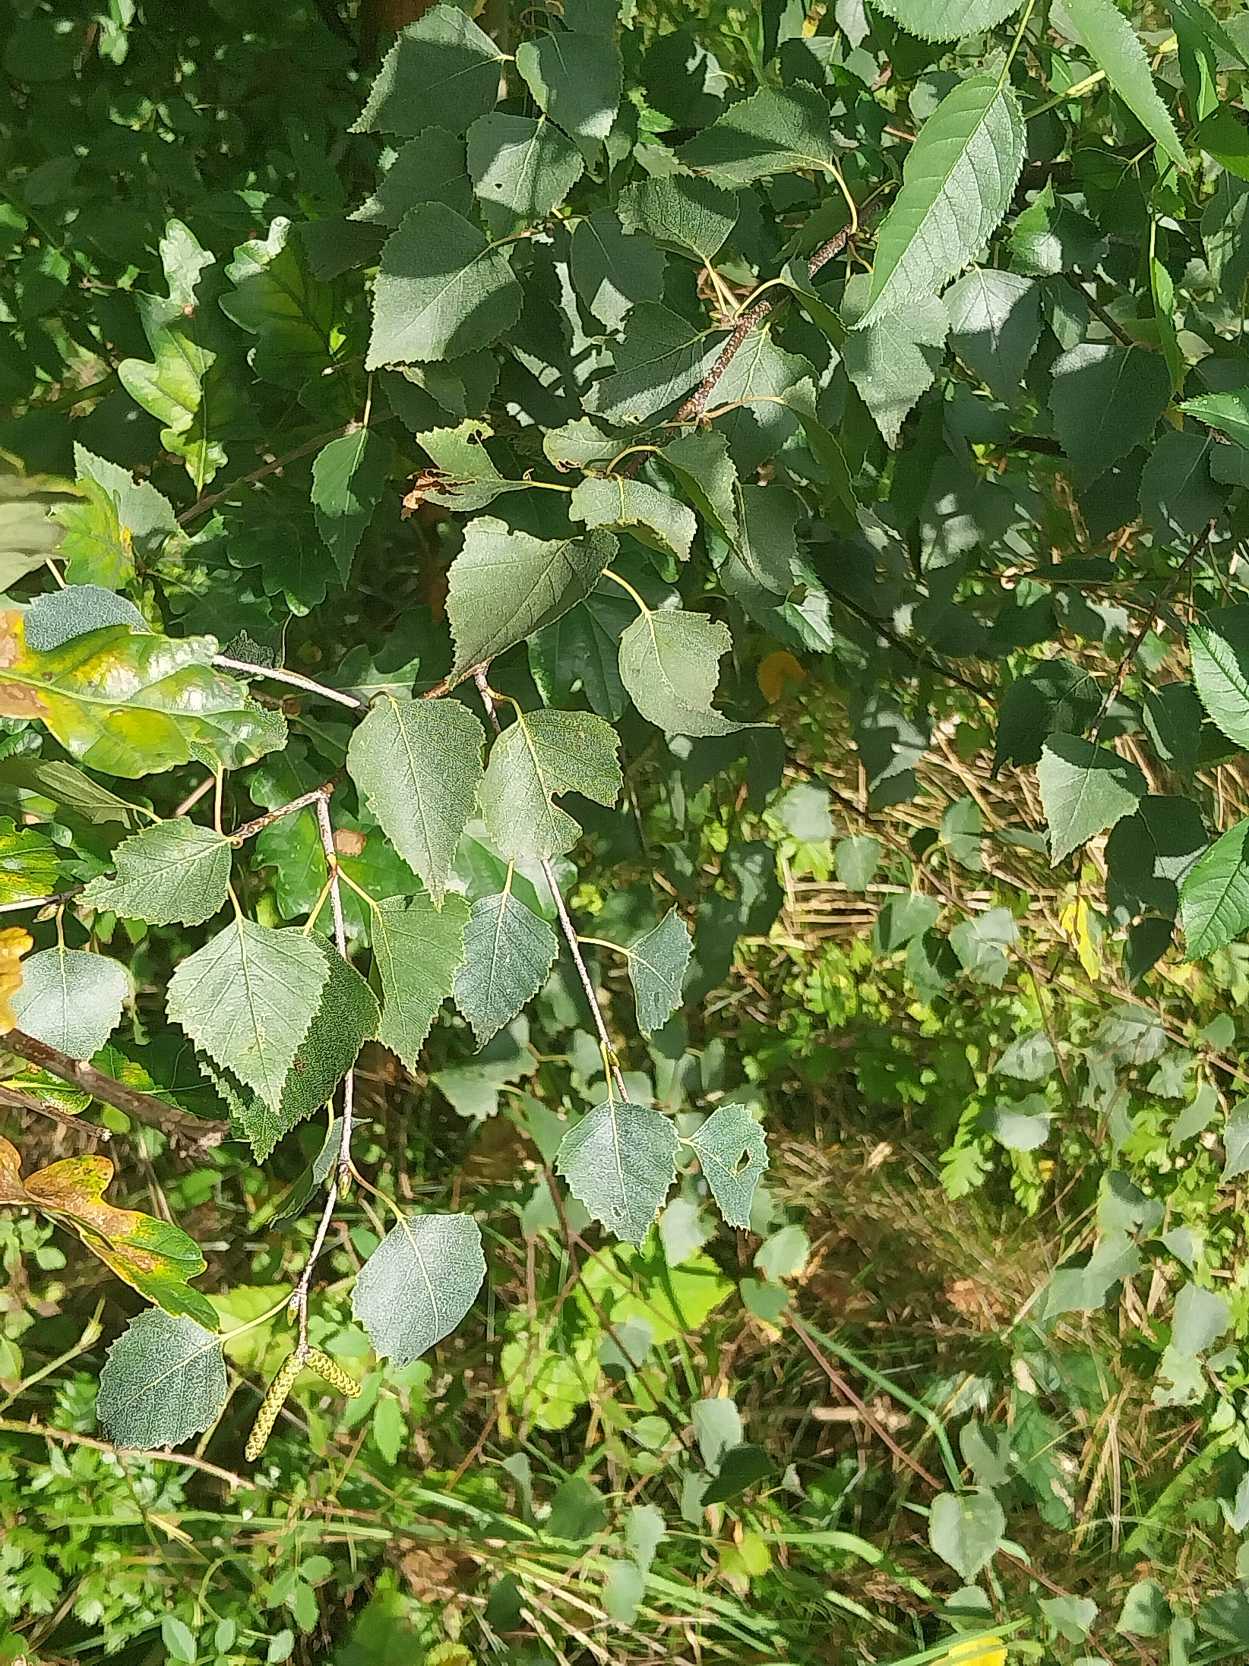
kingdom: Plantae
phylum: Tracheophyta
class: Magnoliopsida
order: Fagales
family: Betulaceae
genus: Betula
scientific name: Betula pendula
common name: Vorte-birk
